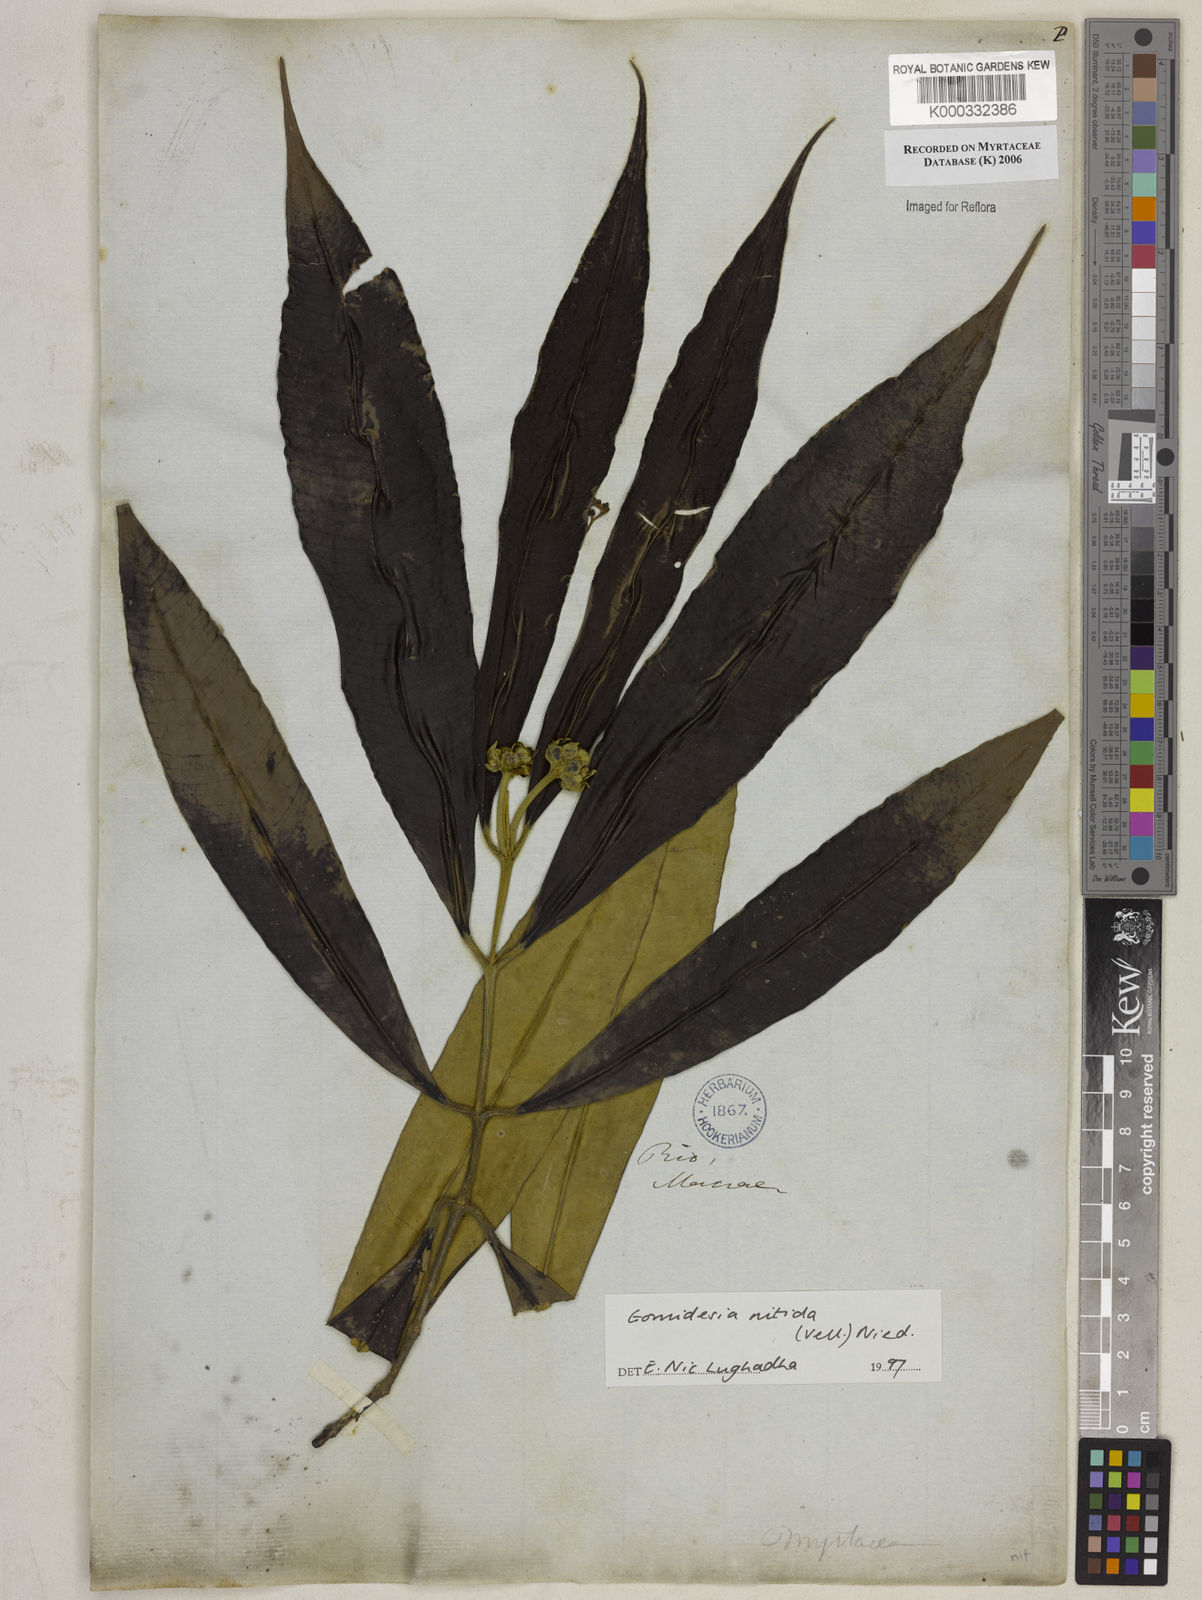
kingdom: Plantae
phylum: Tracheophyta
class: Magnoliopsida
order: Myrtales
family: Myrtaceae
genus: Myrcia
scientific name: Myrcia subsericea
